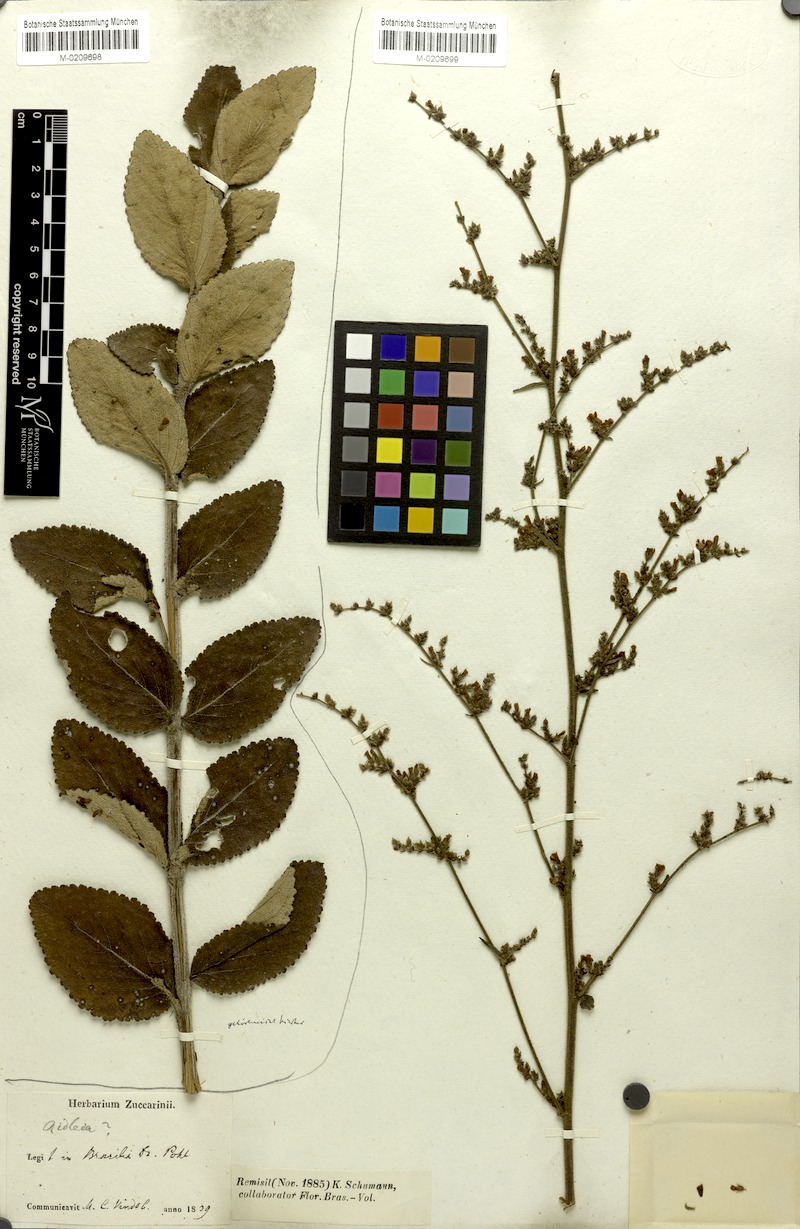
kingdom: Plantae
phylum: Tracheophyta
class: Magnoliopsida
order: Malvales
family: Malvaceae
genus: Melochia
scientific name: Melochia pilosa
